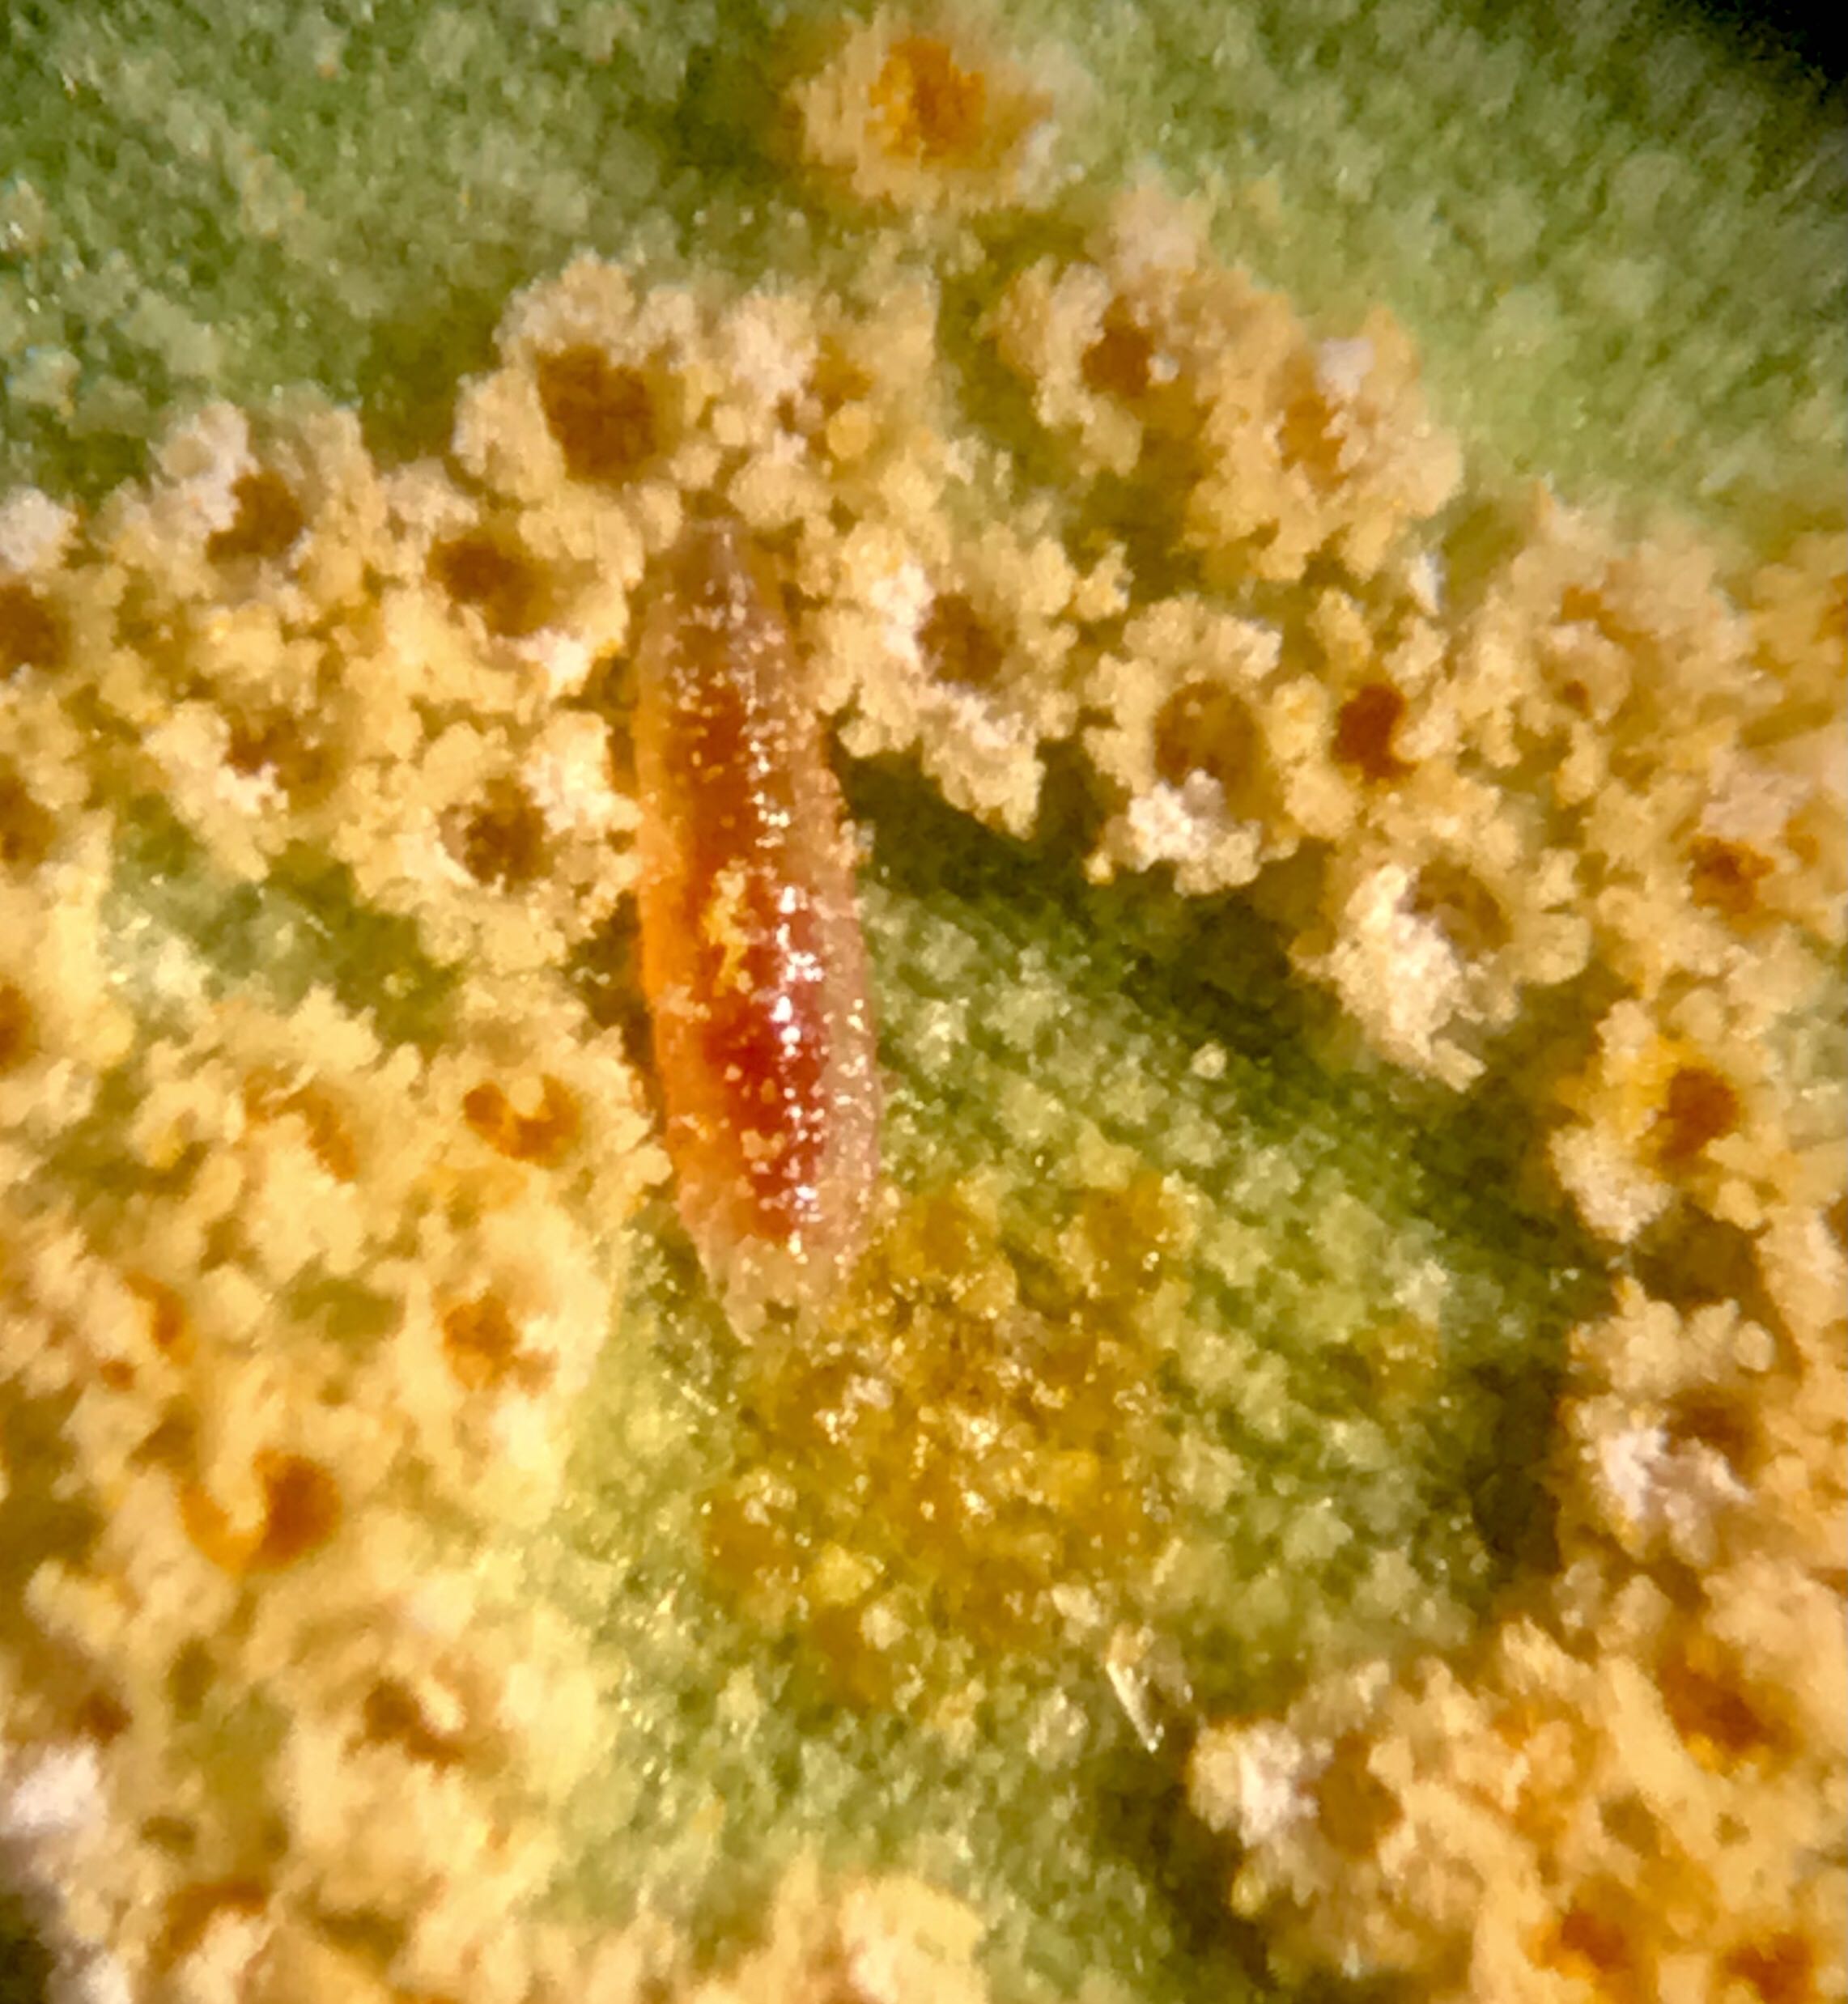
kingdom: Fungi
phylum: Basidiomycota
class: Pucciniomycetes
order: Pucciniales
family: Pucciniaceae
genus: Puccinia
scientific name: Puccinia sessilis
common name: Arum rust
